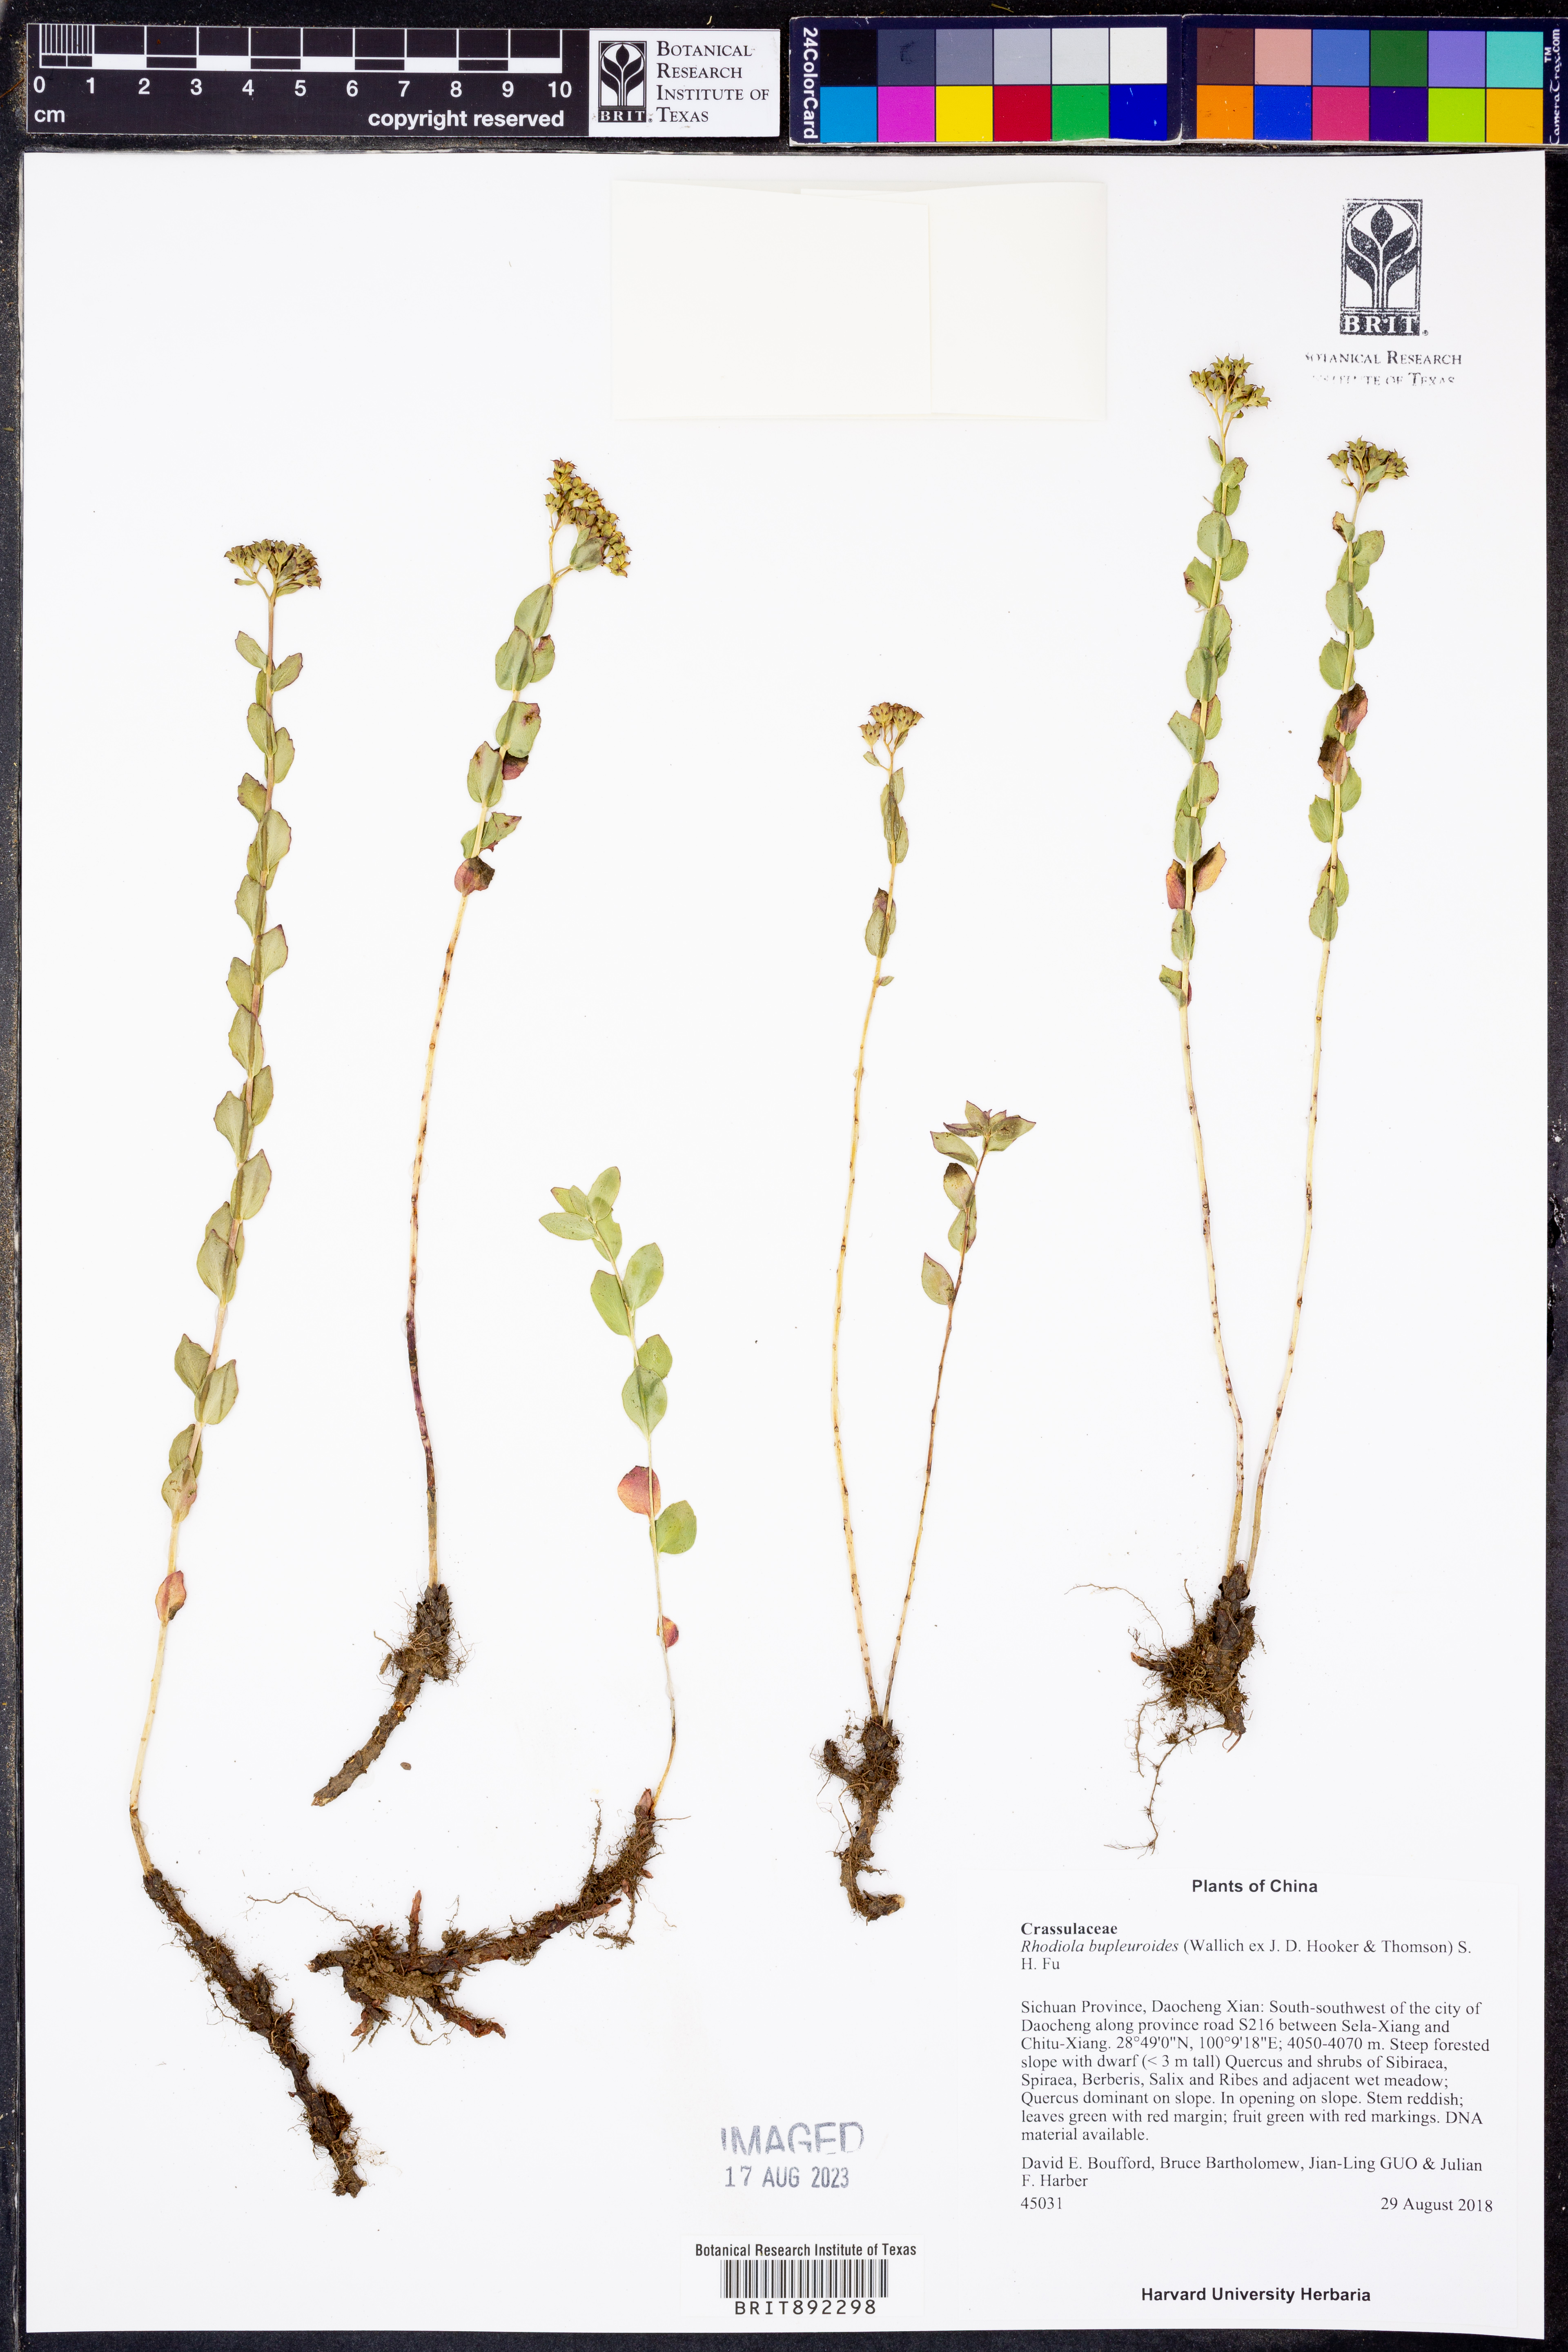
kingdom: Plantae
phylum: Tracheophyta
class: Magnoliopsida
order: Saxifragales
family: Crassulaceae
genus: Rhodiola
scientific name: Rhodiola bupleuroides
